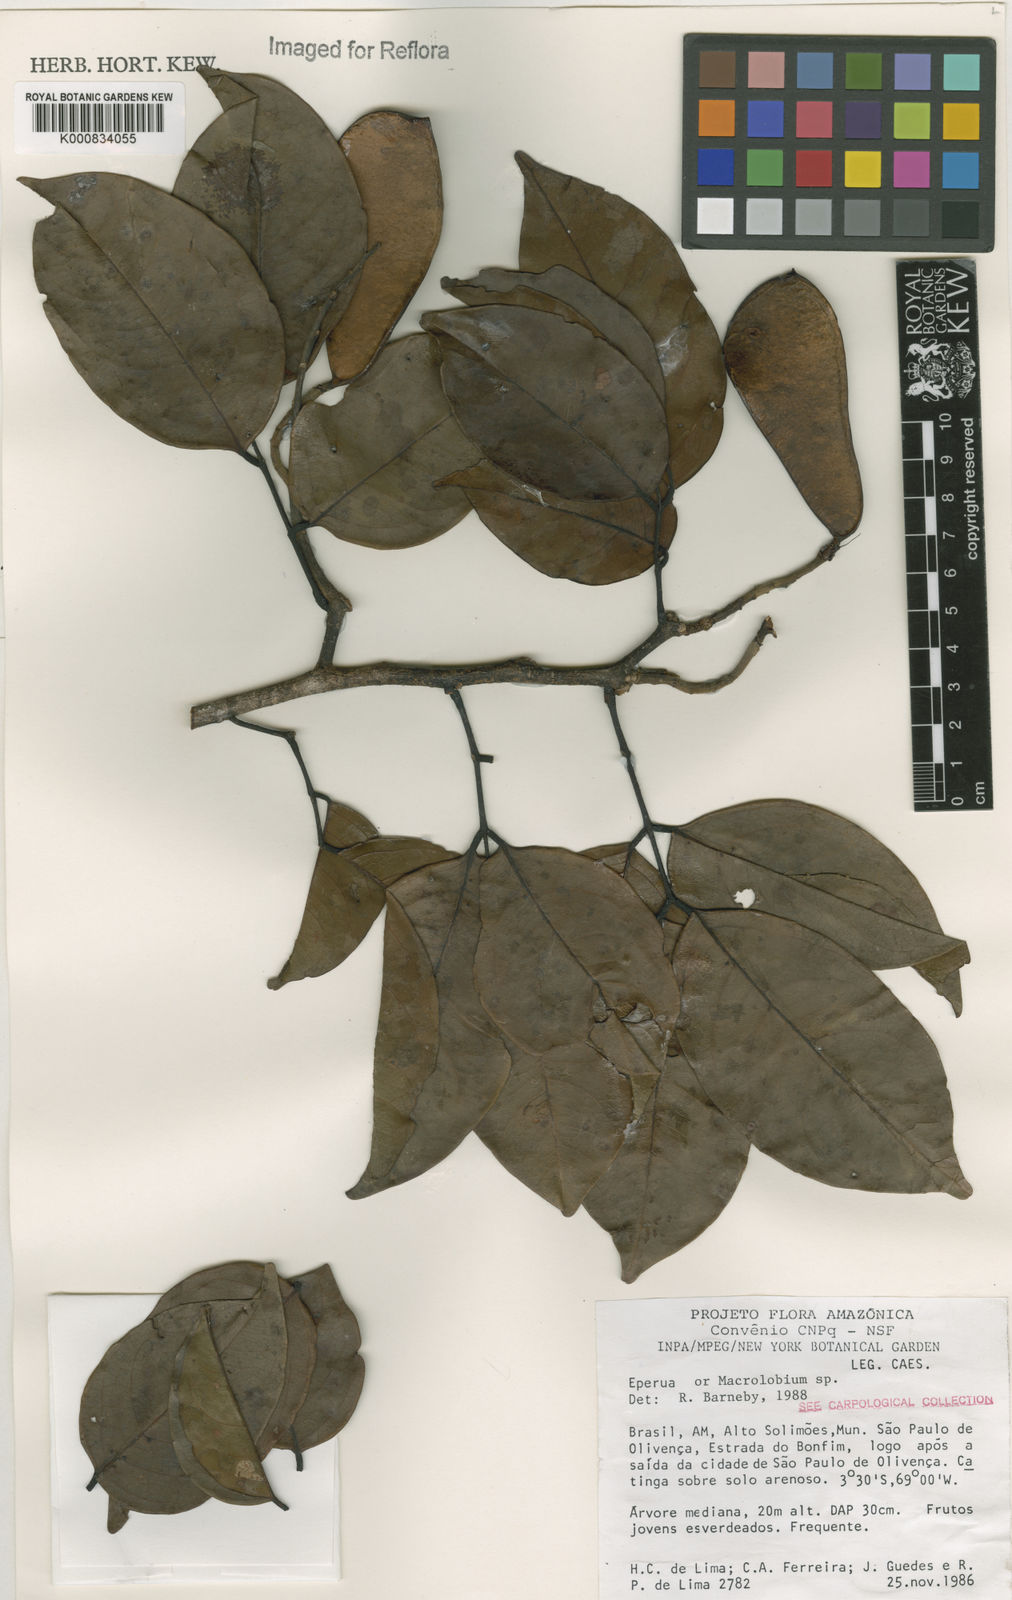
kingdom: Plantae
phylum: Tracheophyta
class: Magnoliopsida
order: Fabales
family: Fabaceae
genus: Eperua
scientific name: Eperua
